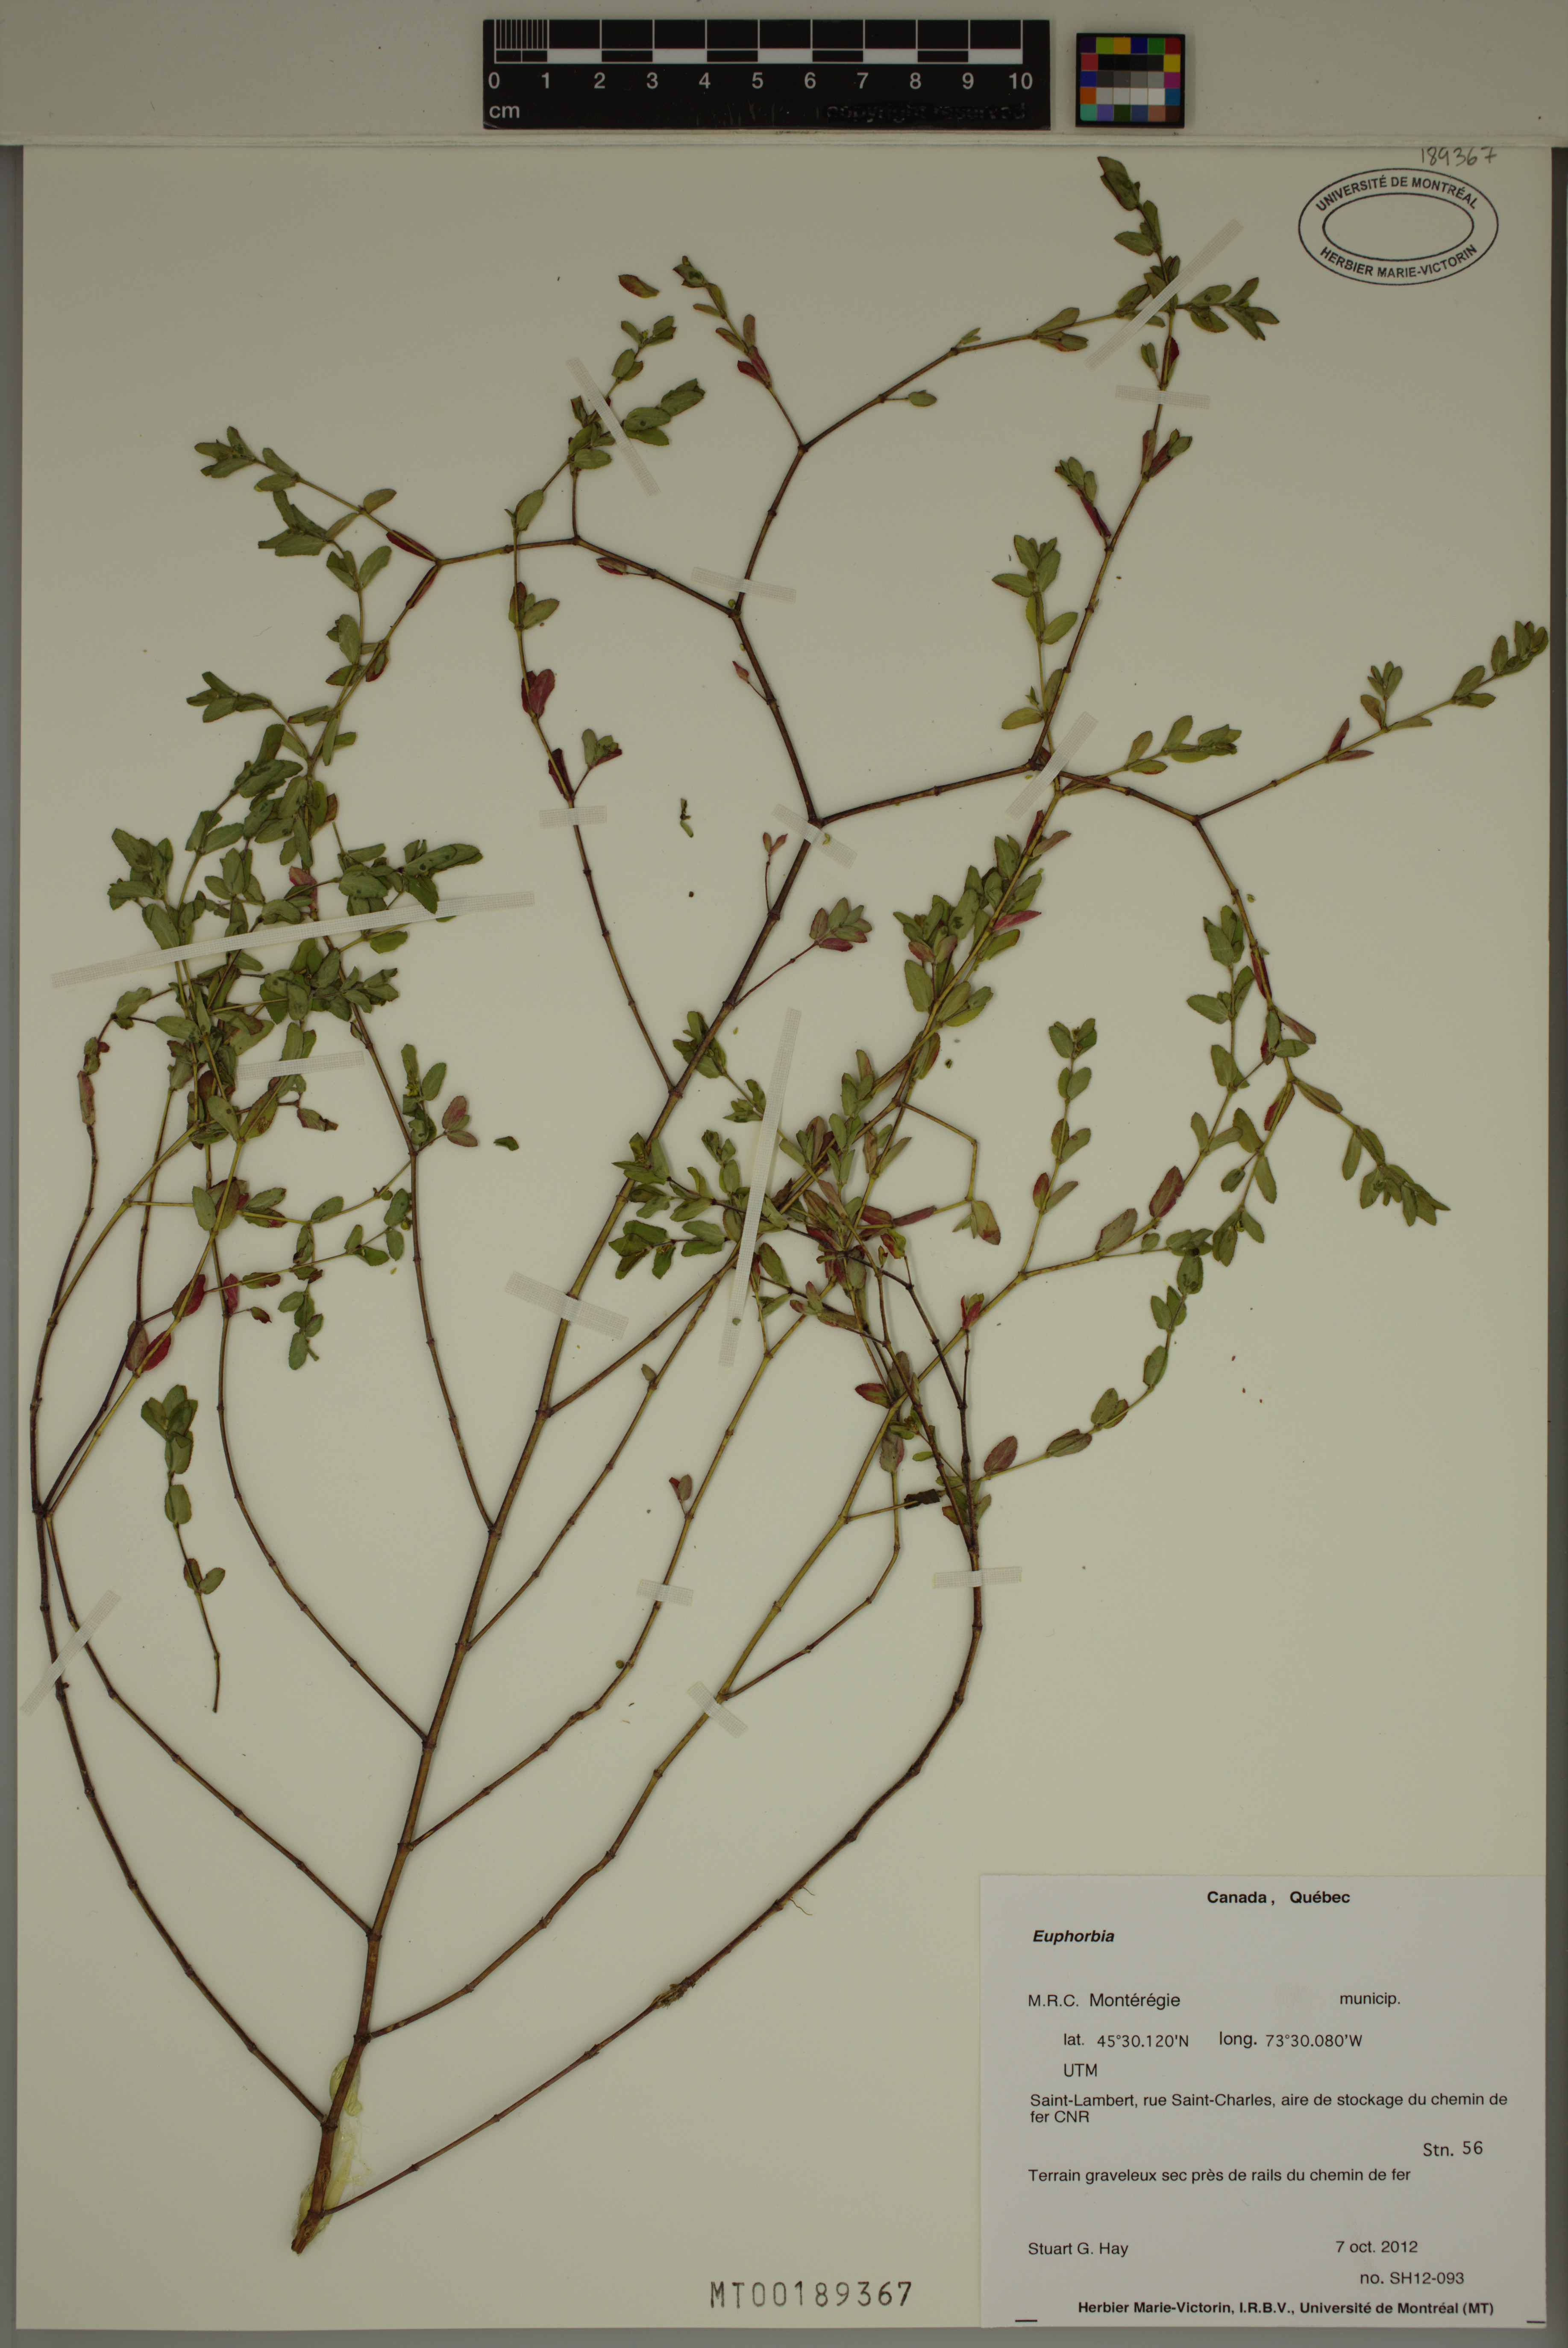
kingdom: Plantae
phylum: Tracheophyta
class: Magnoliopsida
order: Malpighiales
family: Euphorbiaceae
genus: Euphorbia
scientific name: Euphorbia
